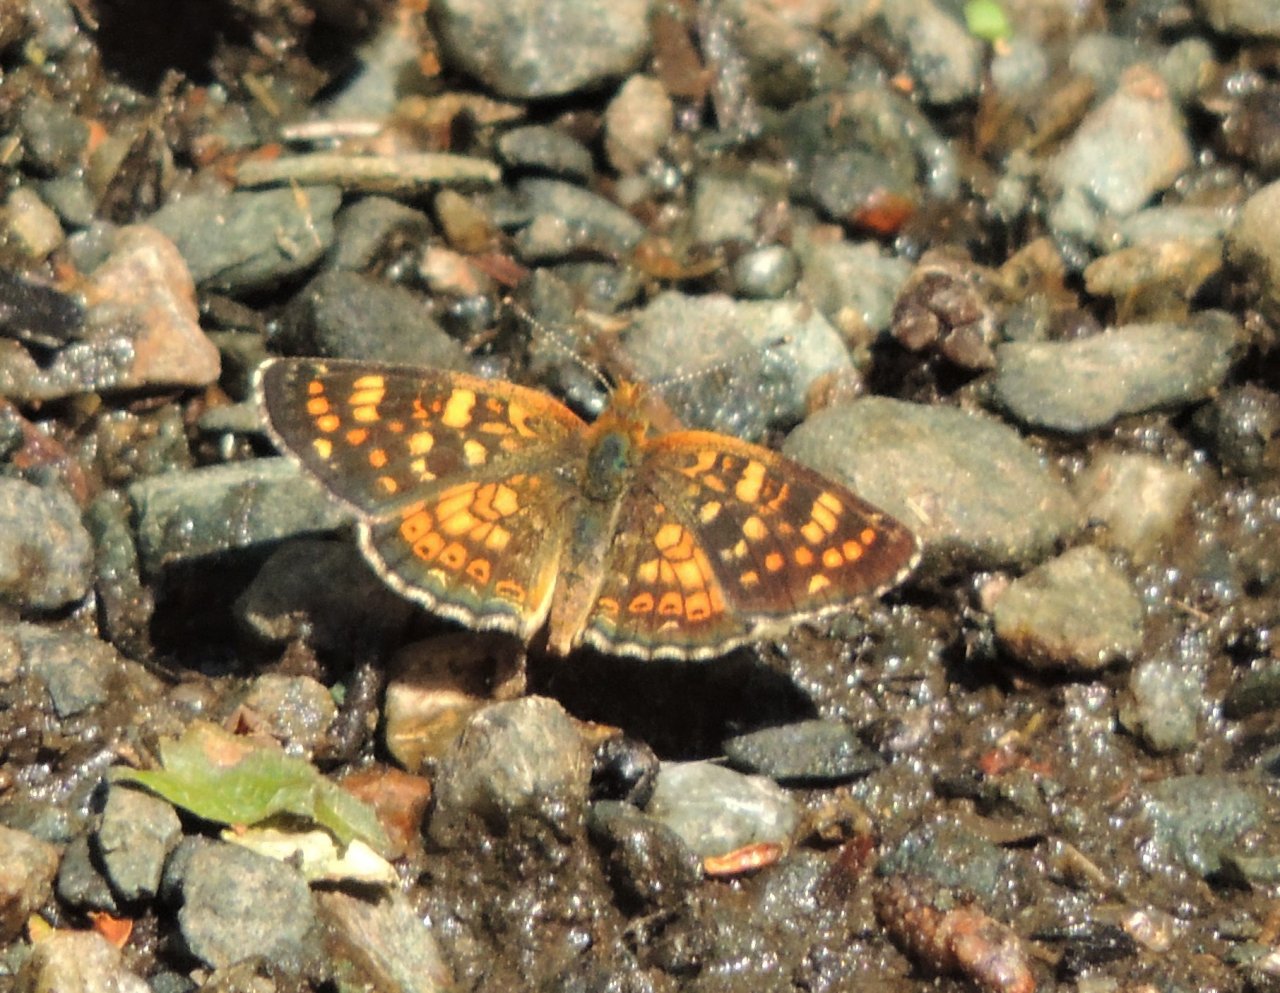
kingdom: Animalia
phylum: Arthropoda
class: Insecta
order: Lepidoptera
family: Nymphalidae
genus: Phyciodes
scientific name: Phyciodes tharos
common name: Field Crescent
